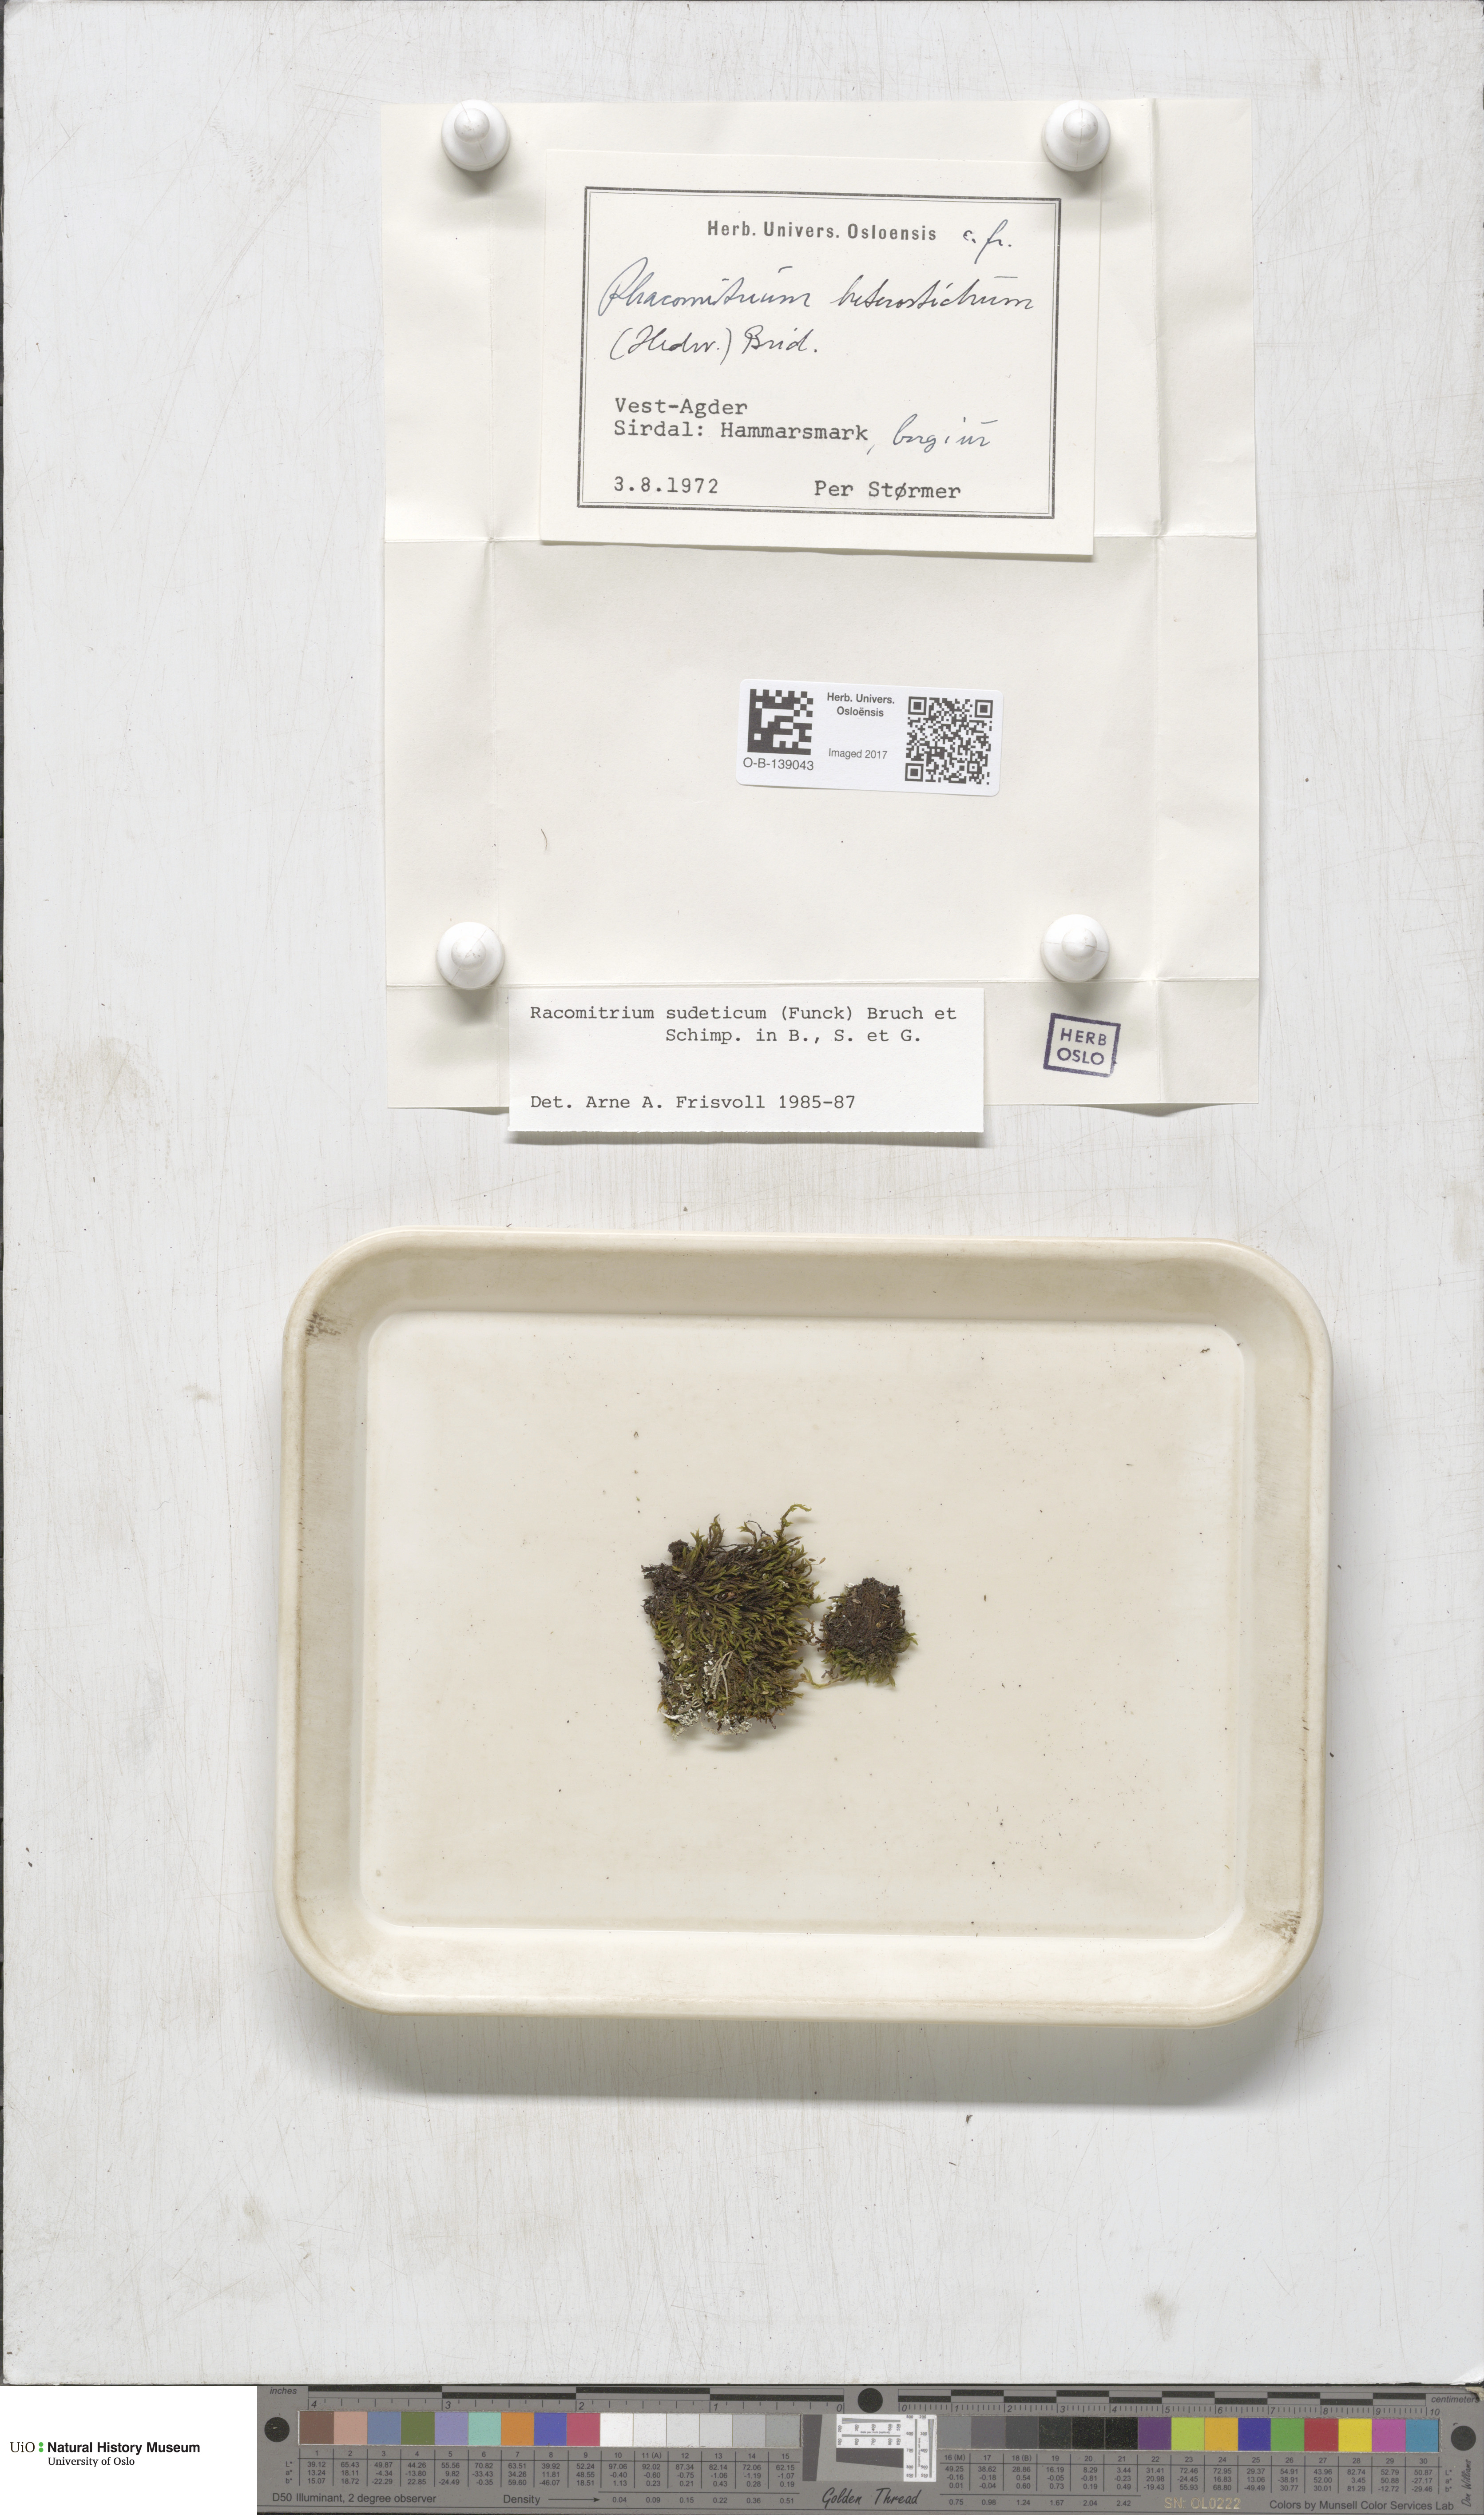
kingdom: Plantae
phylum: Bryophyta
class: Bryopsida
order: Grimmiales
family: Grimmiaceae
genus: Bucklandiella
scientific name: Bucklandiella sudetica
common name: Slender fringe-moss
